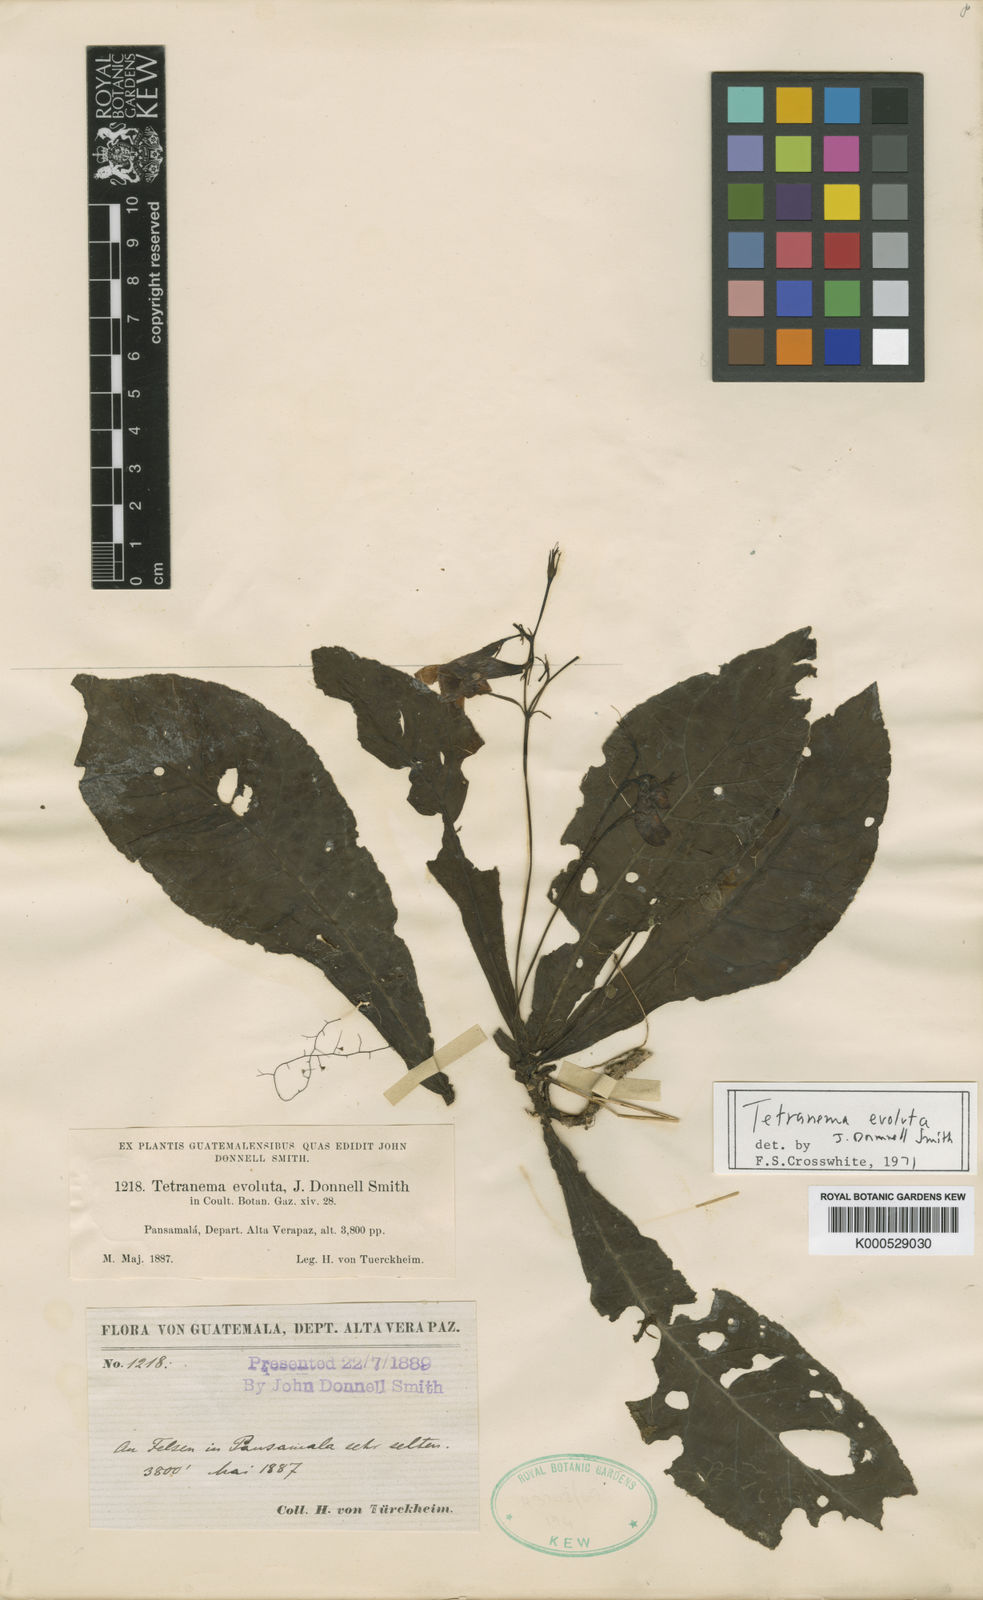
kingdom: Plantae
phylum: Tracheophyta
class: Magnoliopsida
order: Lamiales
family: Plantaginaceae
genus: Tetranema
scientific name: Tetranema roseum
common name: Mexican-violet
